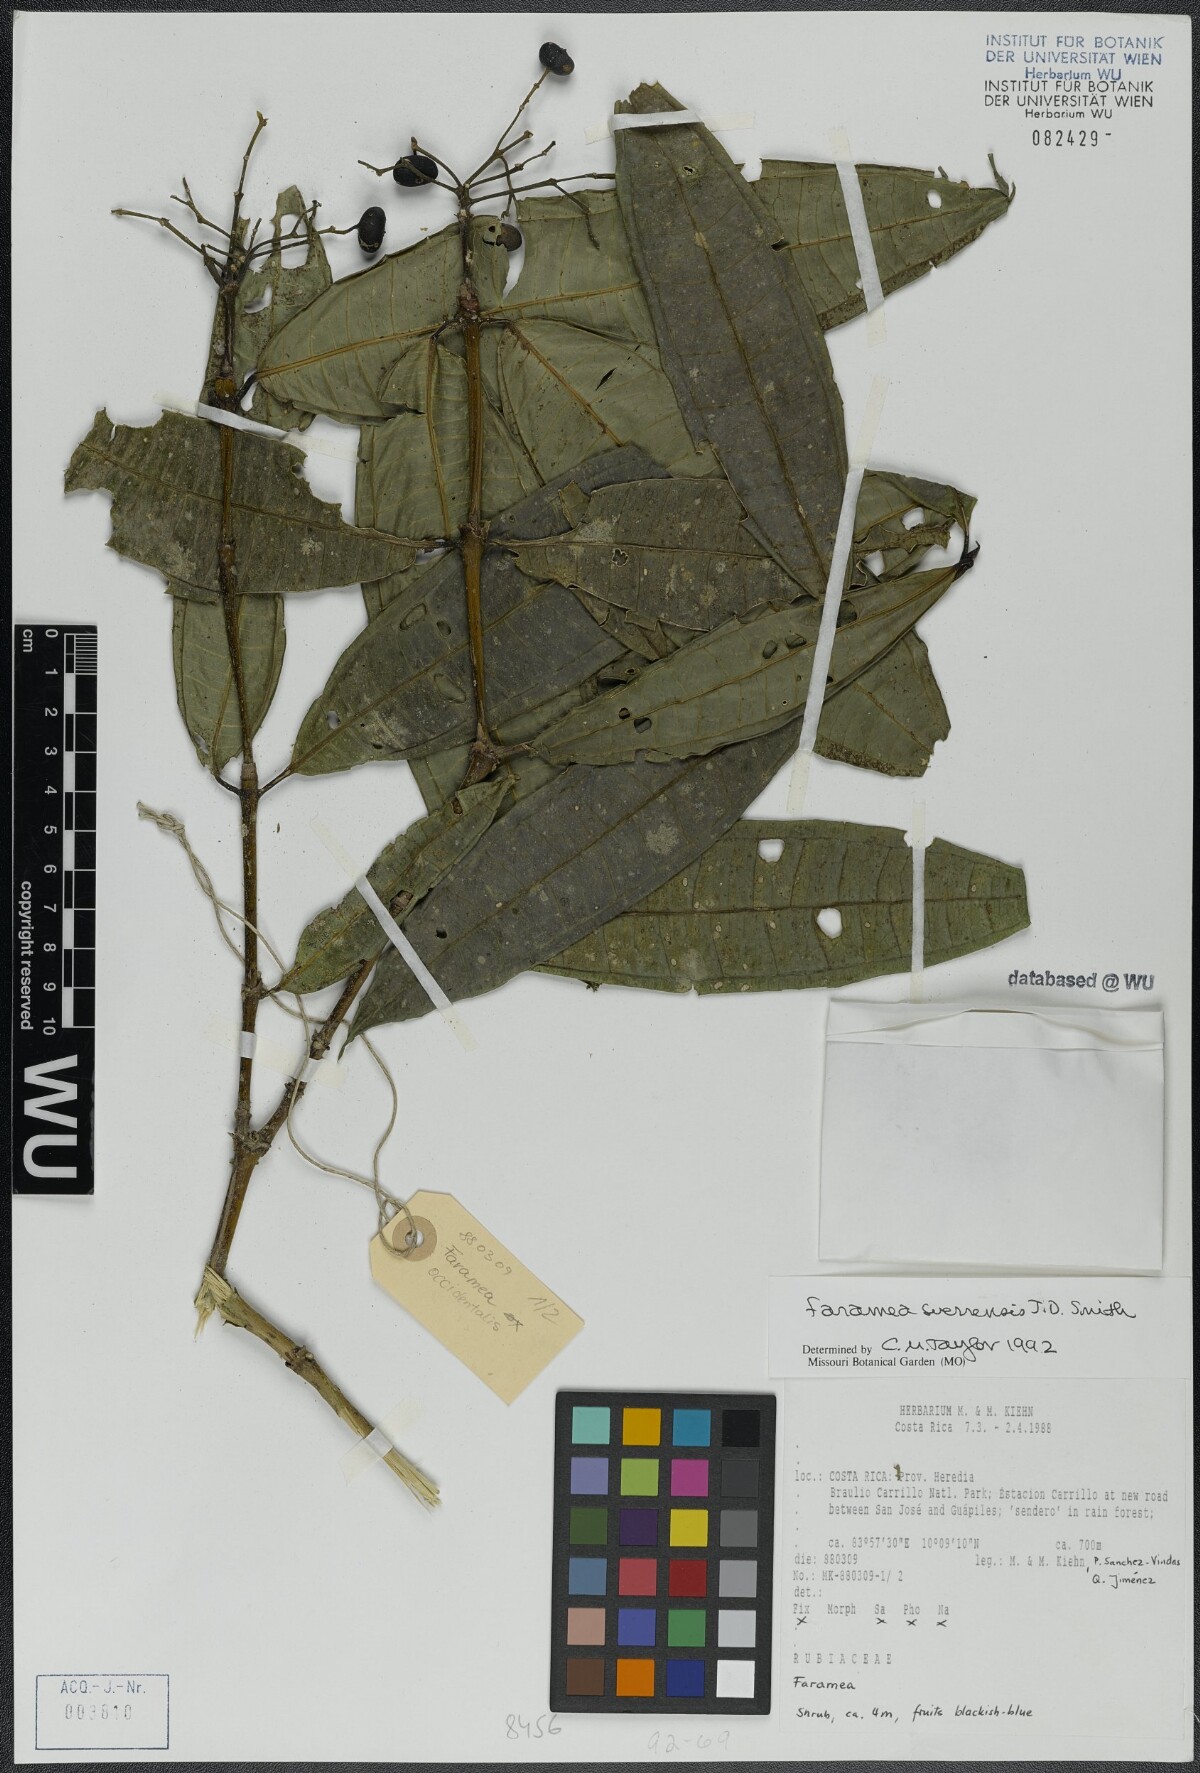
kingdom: Plantae
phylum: Tracheophyta
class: Magnoliopsida
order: Gentianales
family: Rubiaceae
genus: Faramea
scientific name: Faramea suerrensis
